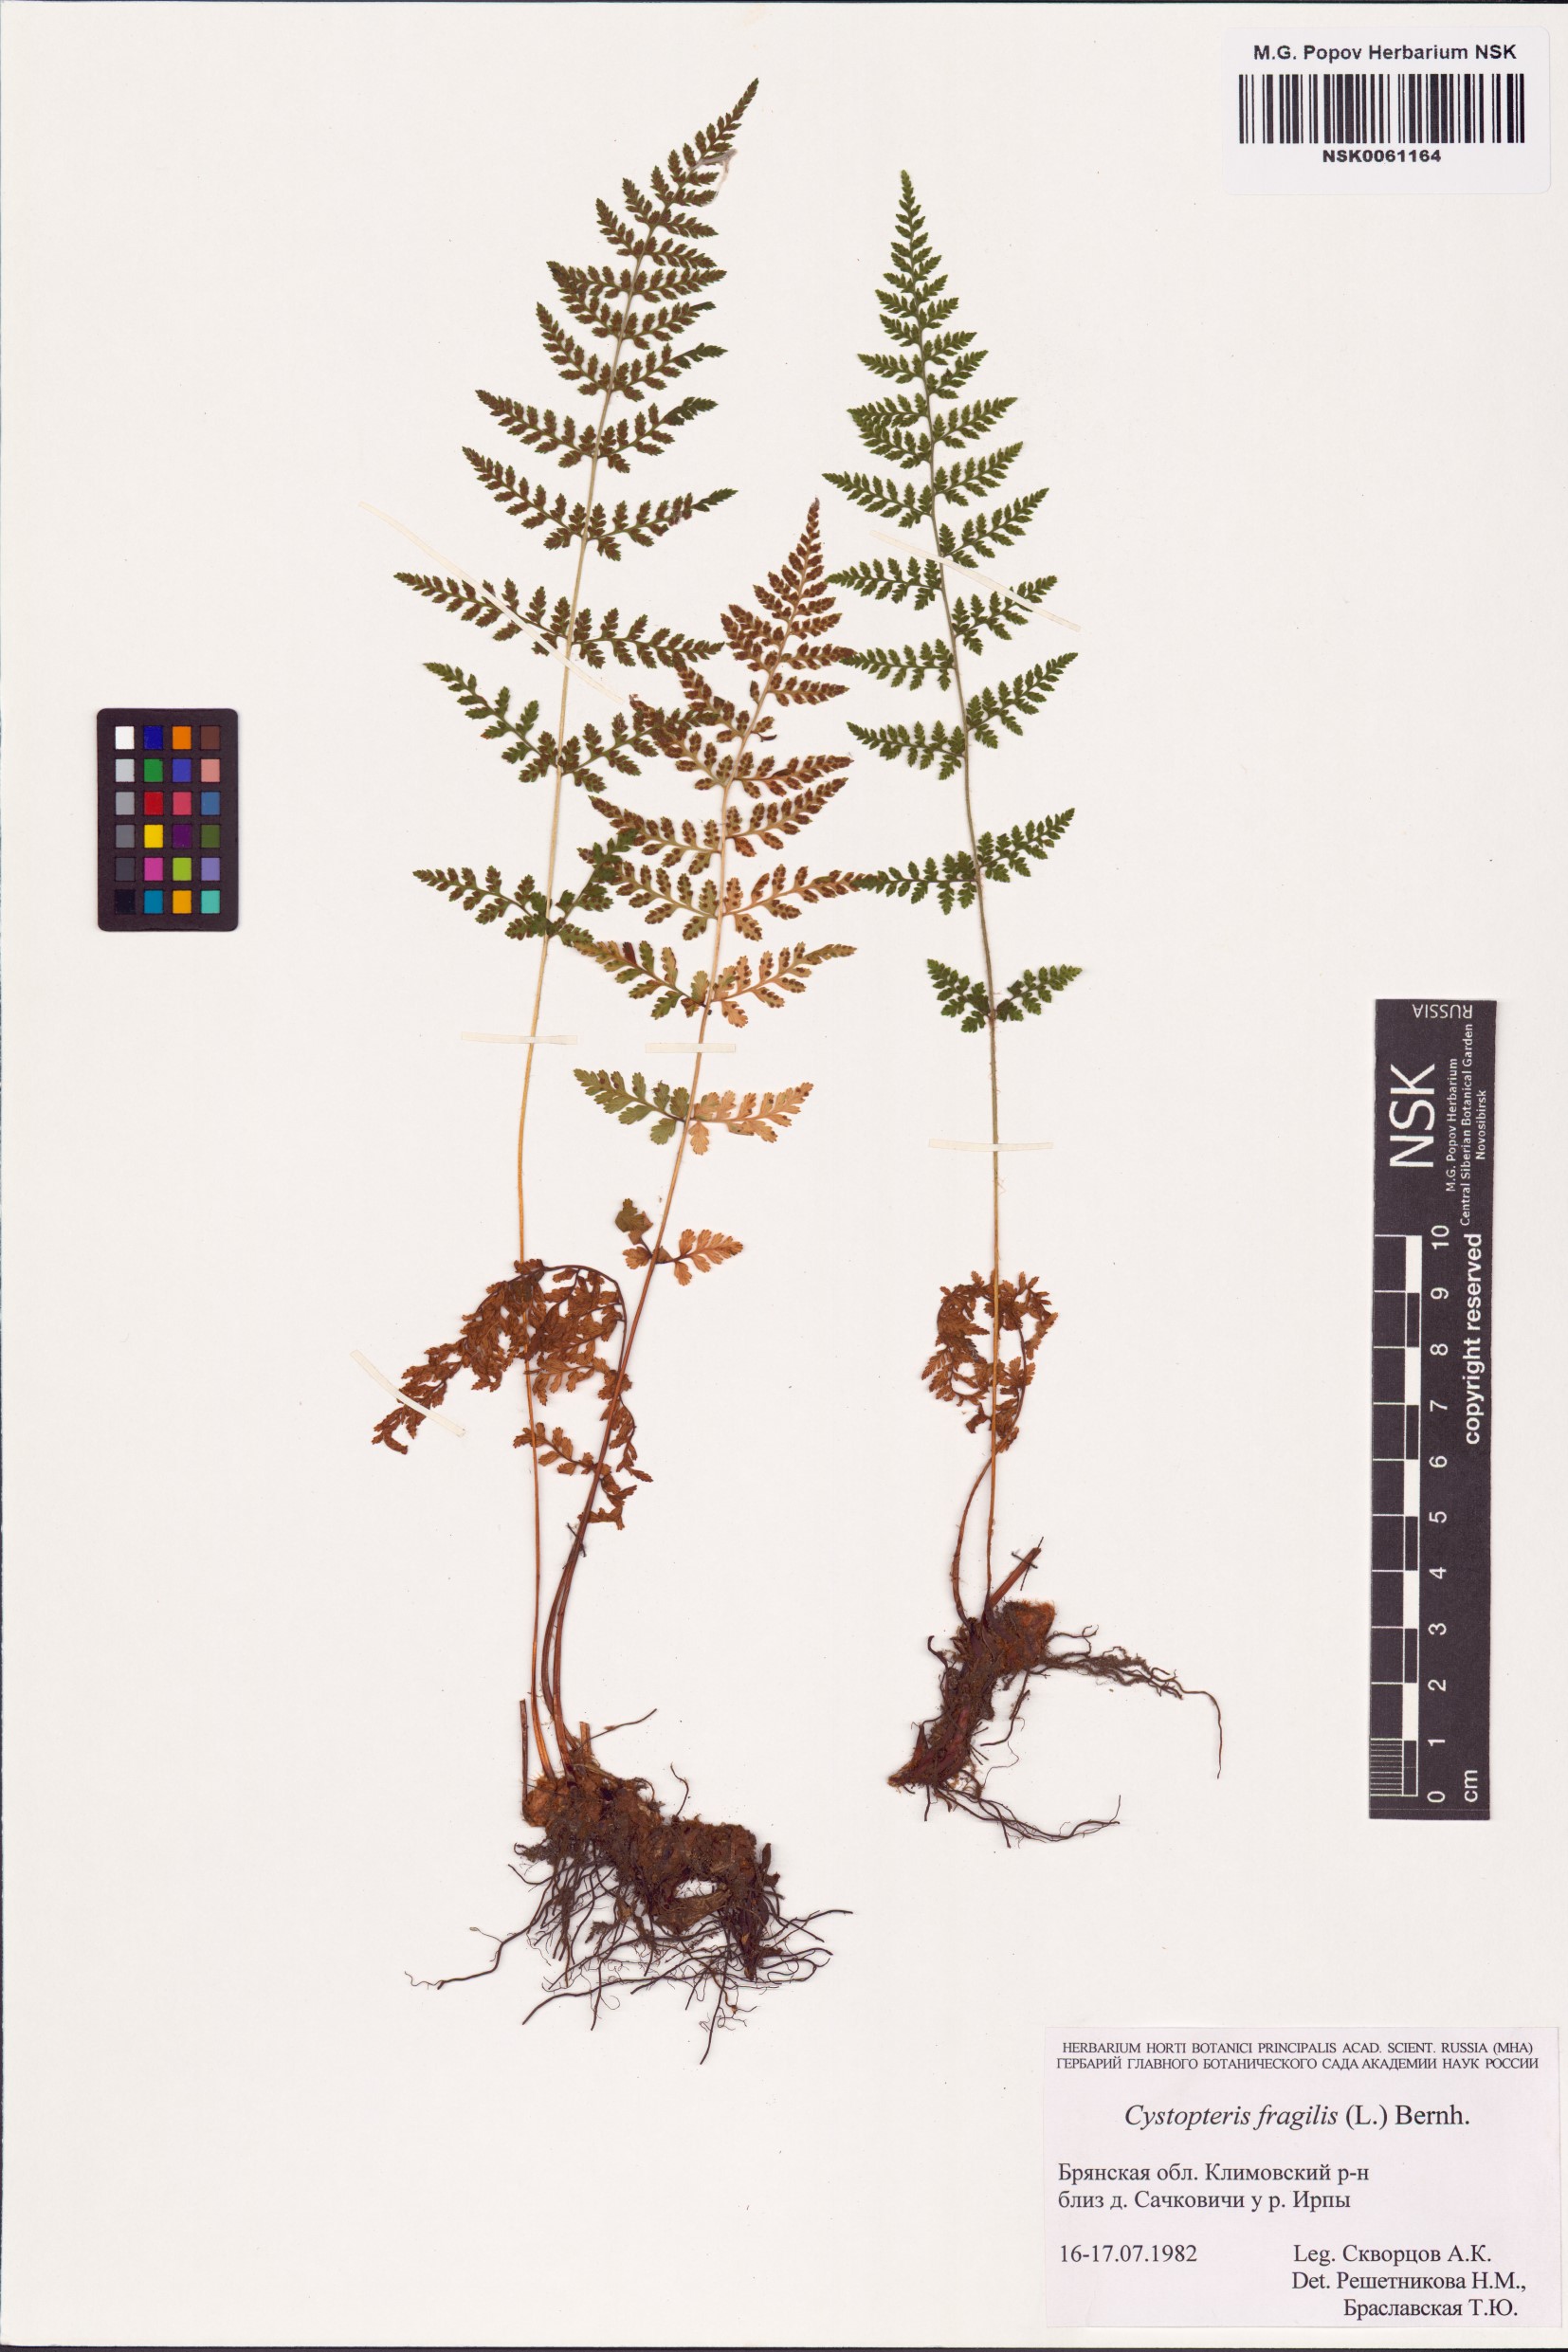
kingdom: Plantae
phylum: Tracheophyta
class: Polypodiopsida
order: Polypodiales
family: Cystopteridaceae
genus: Cystopteris
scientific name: Cystopteris fragilis
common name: Brittle bladder fern
